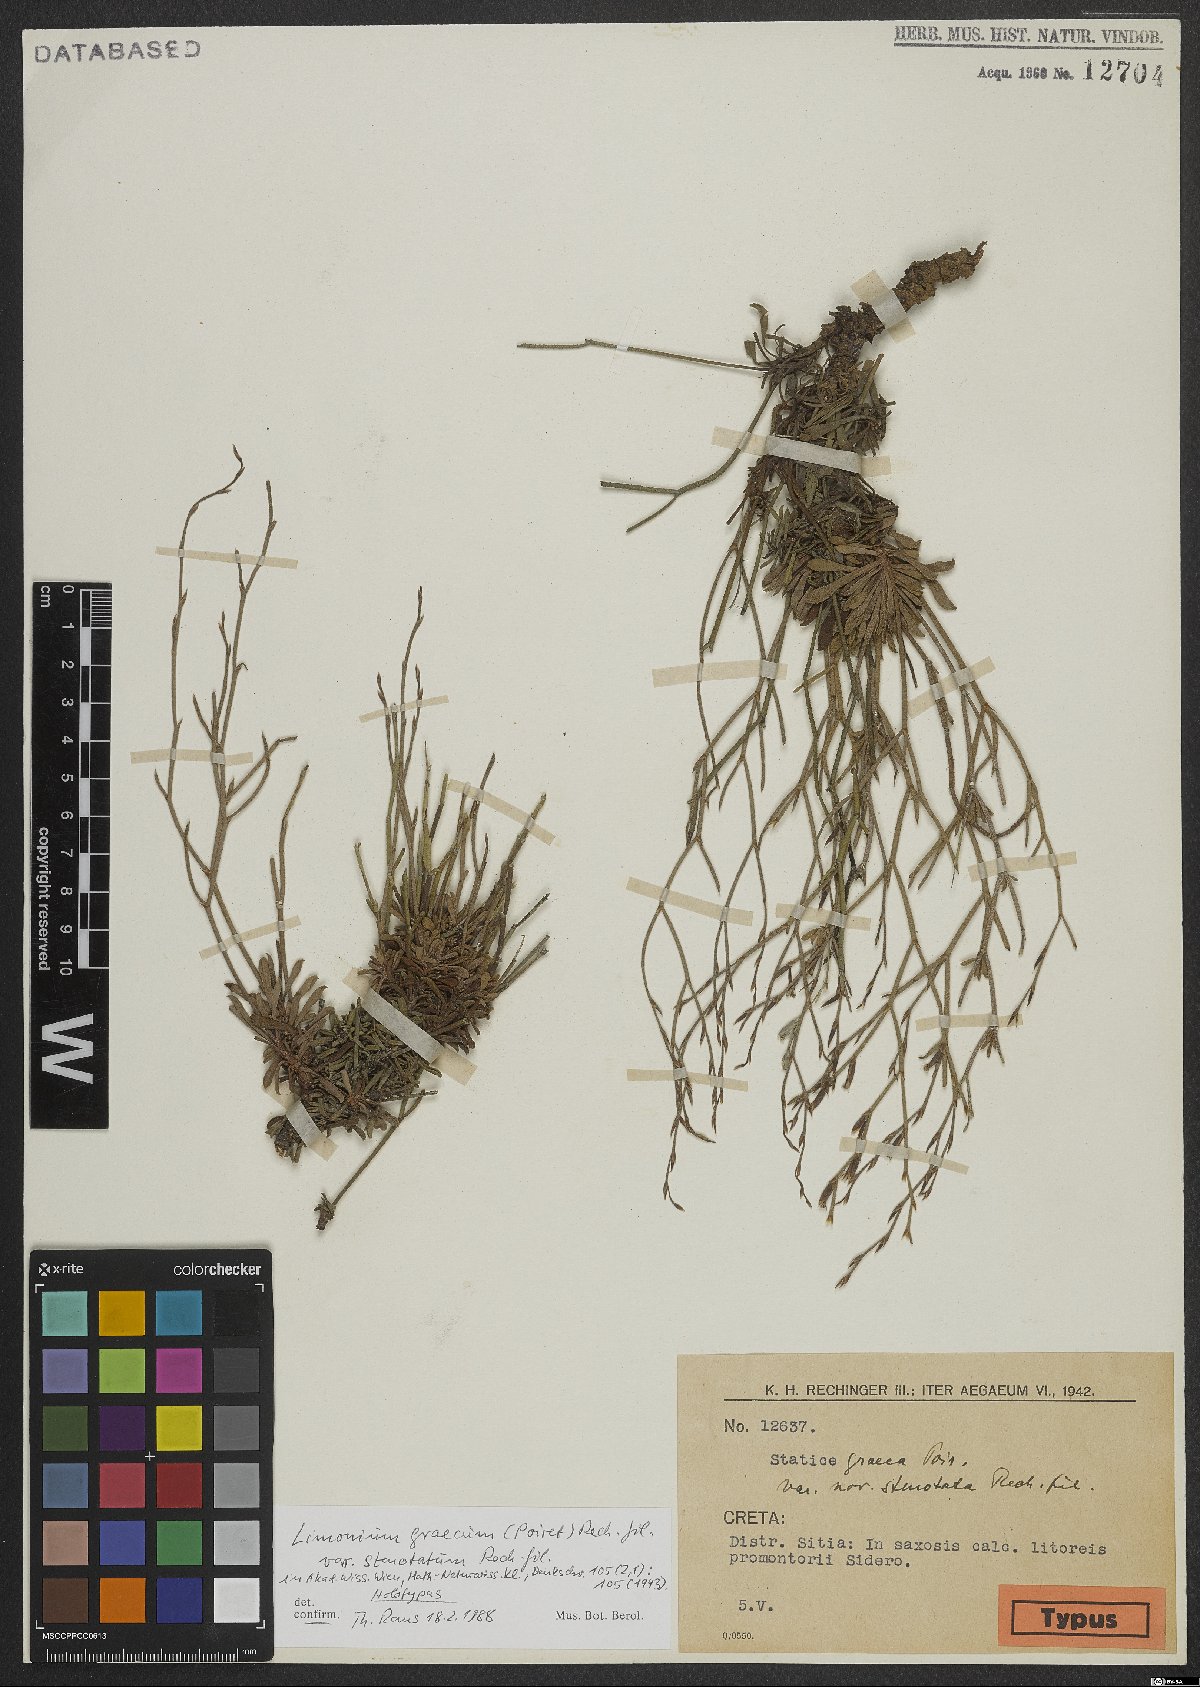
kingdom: Plantae
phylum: Tracheophyta
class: Magnoliopsida
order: Caryophyllales
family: Plumbaginaceae
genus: Limonium
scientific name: Limonium stenotatum
